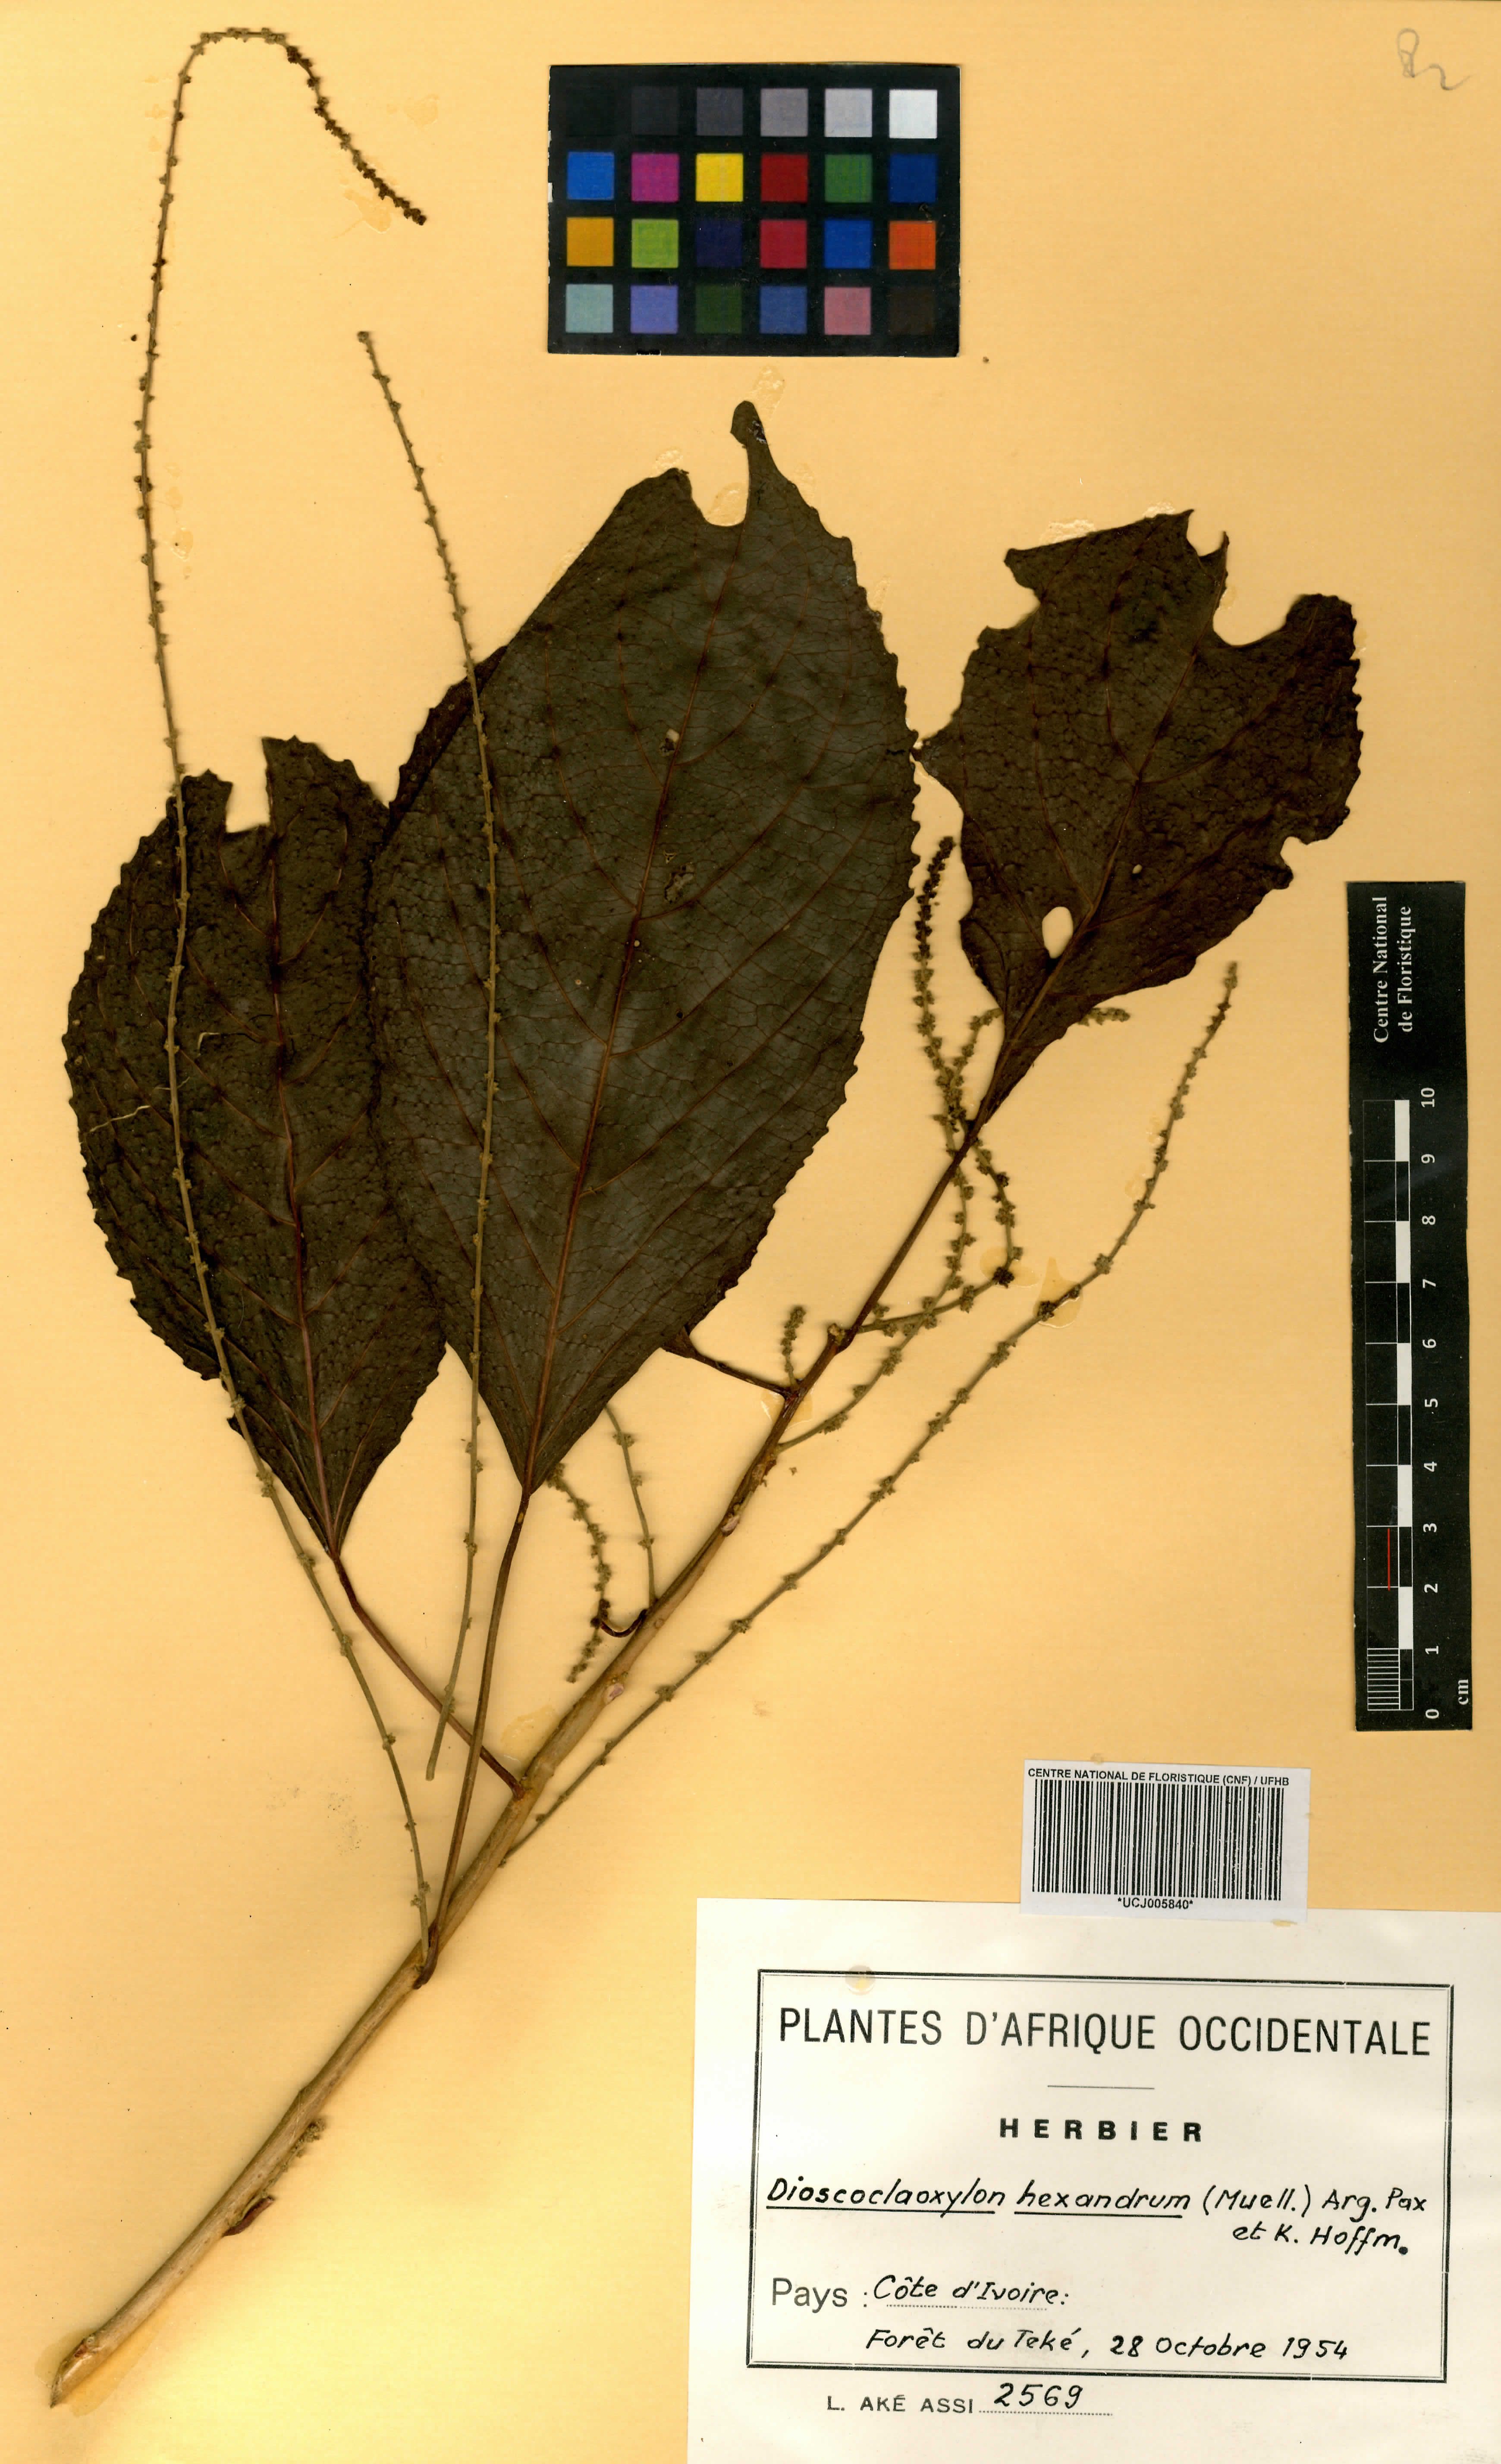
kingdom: Plantae
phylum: Tracheophyta
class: Magnoliopsida
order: Malpighiales
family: Euphorbiaceae
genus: Discoclaoxylon
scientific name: Discoclaoxylon hexandrum
